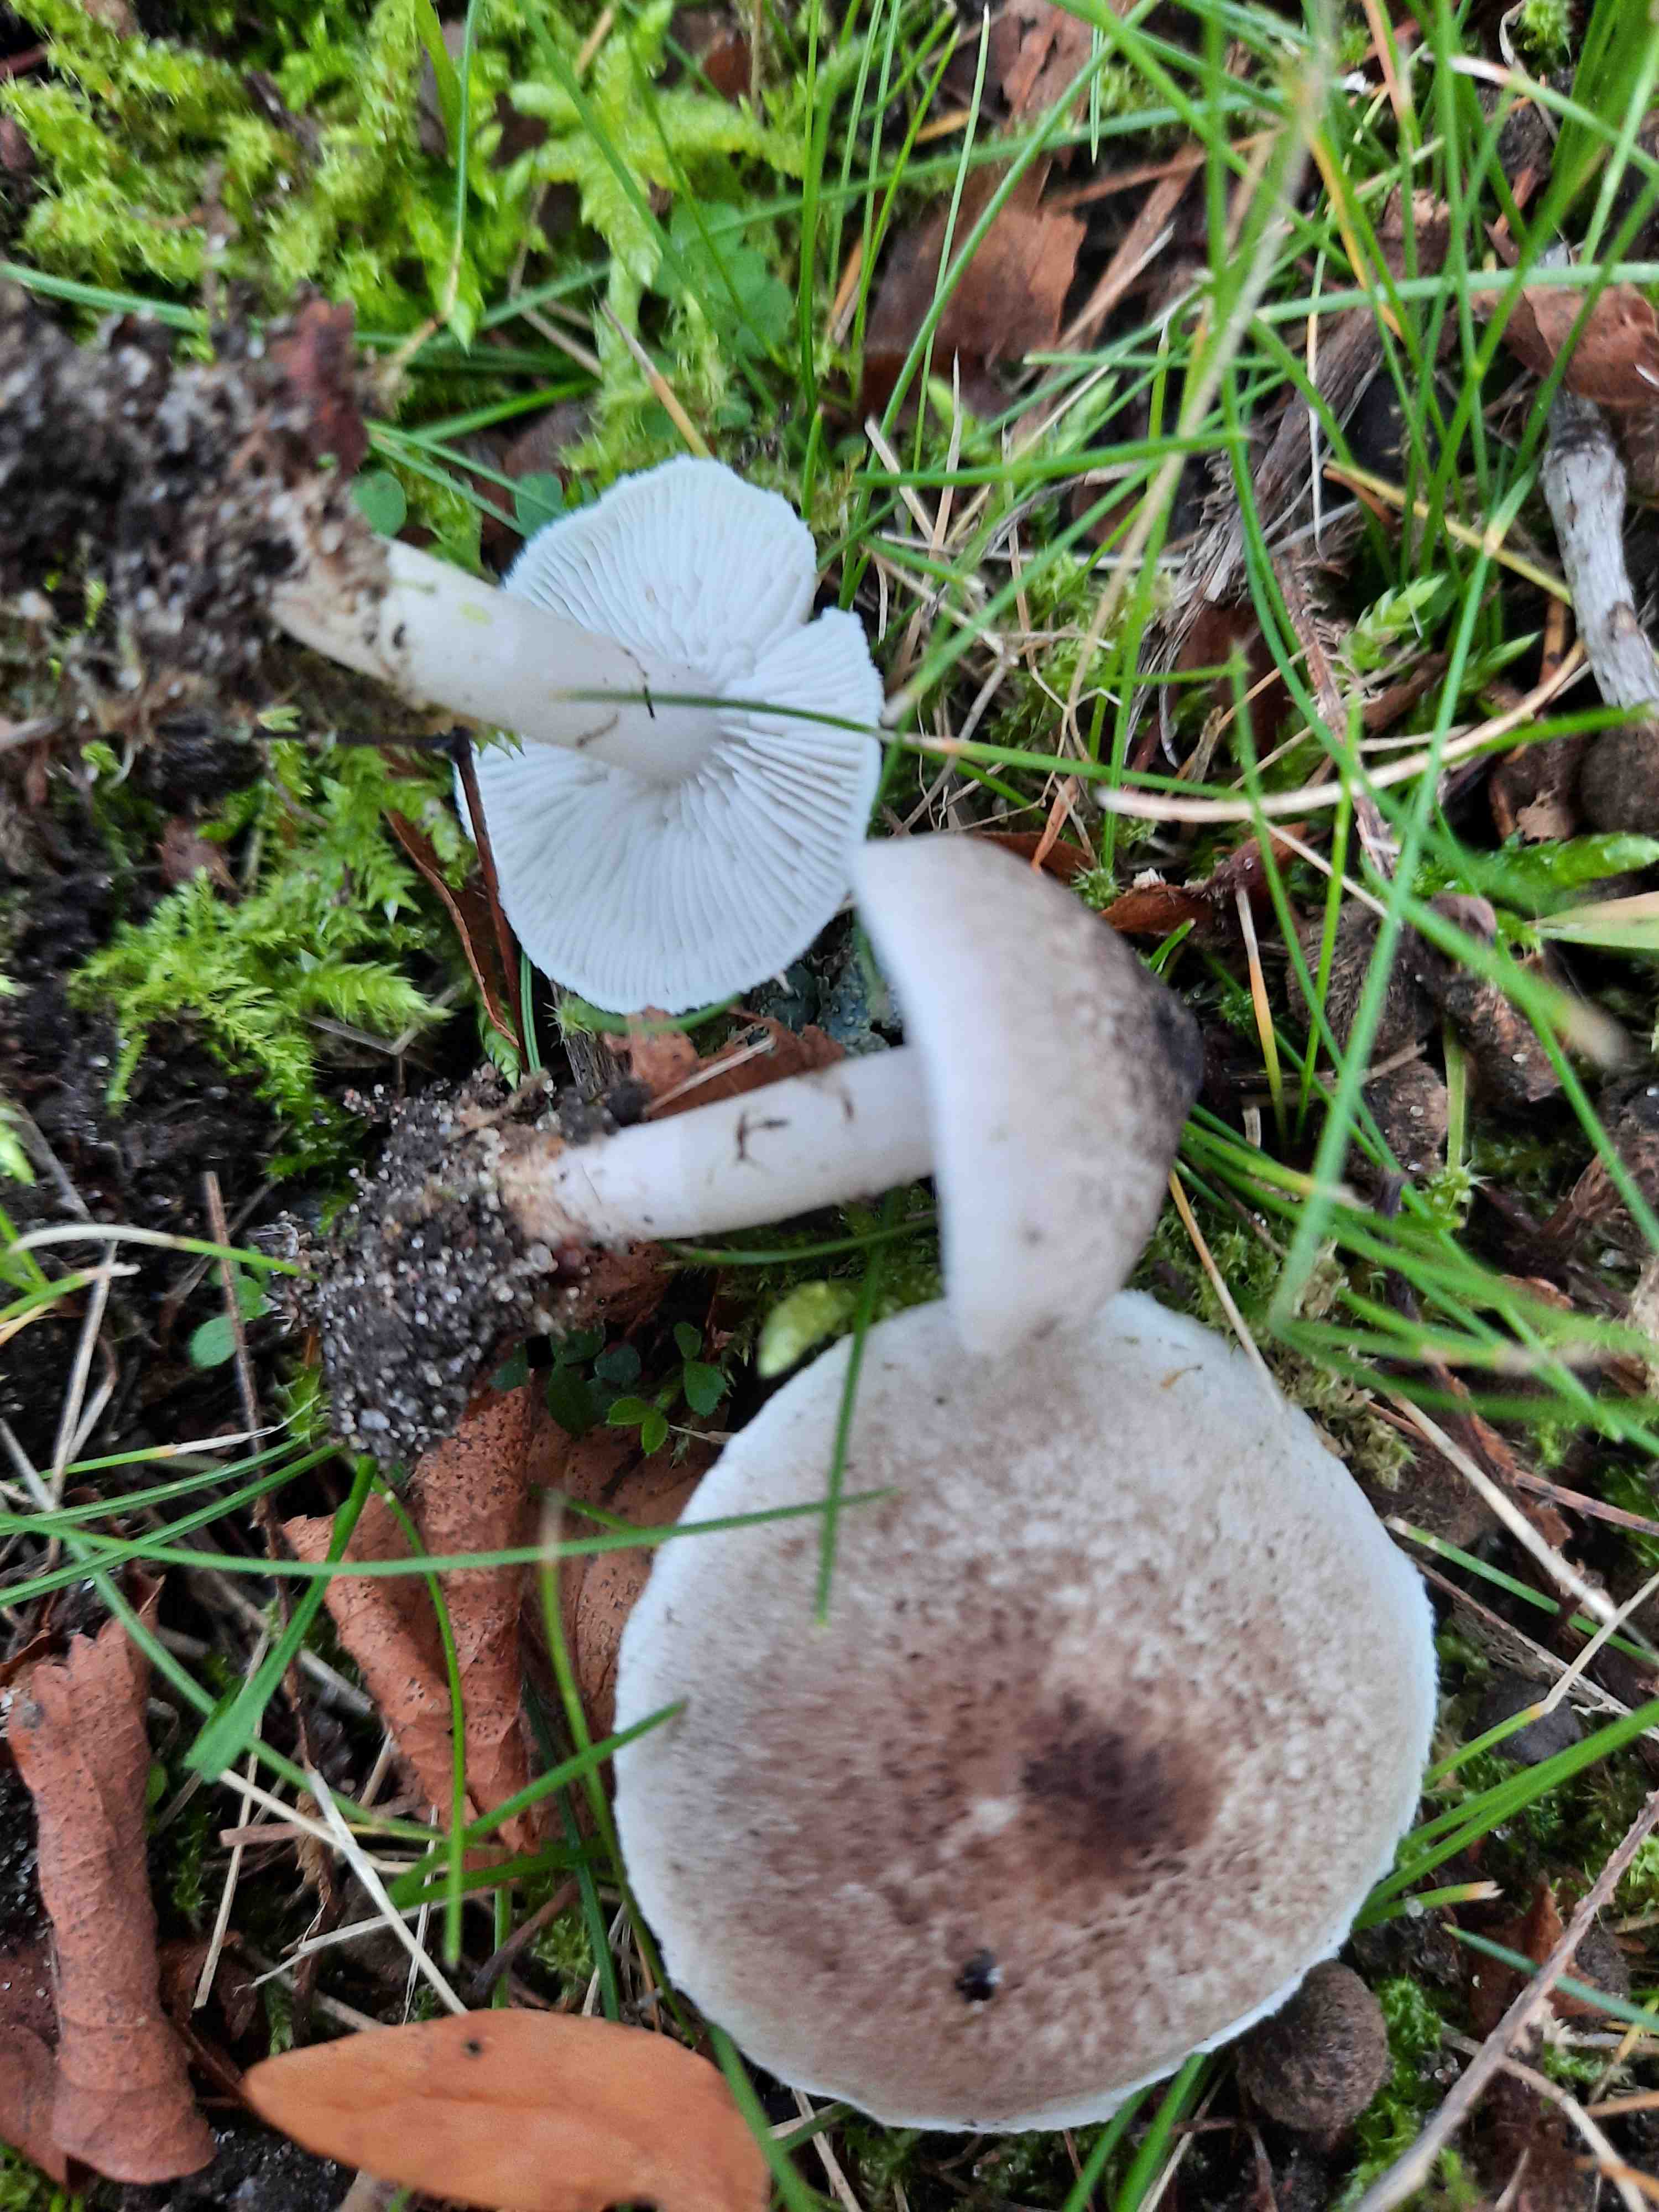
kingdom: Fungi
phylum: Basidiomycota
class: Agaricomycetes
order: Agaricales
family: Tricholomataceae
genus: Tricholoma
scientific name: Tricholoma argyraceum
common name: slør-ridderhat
